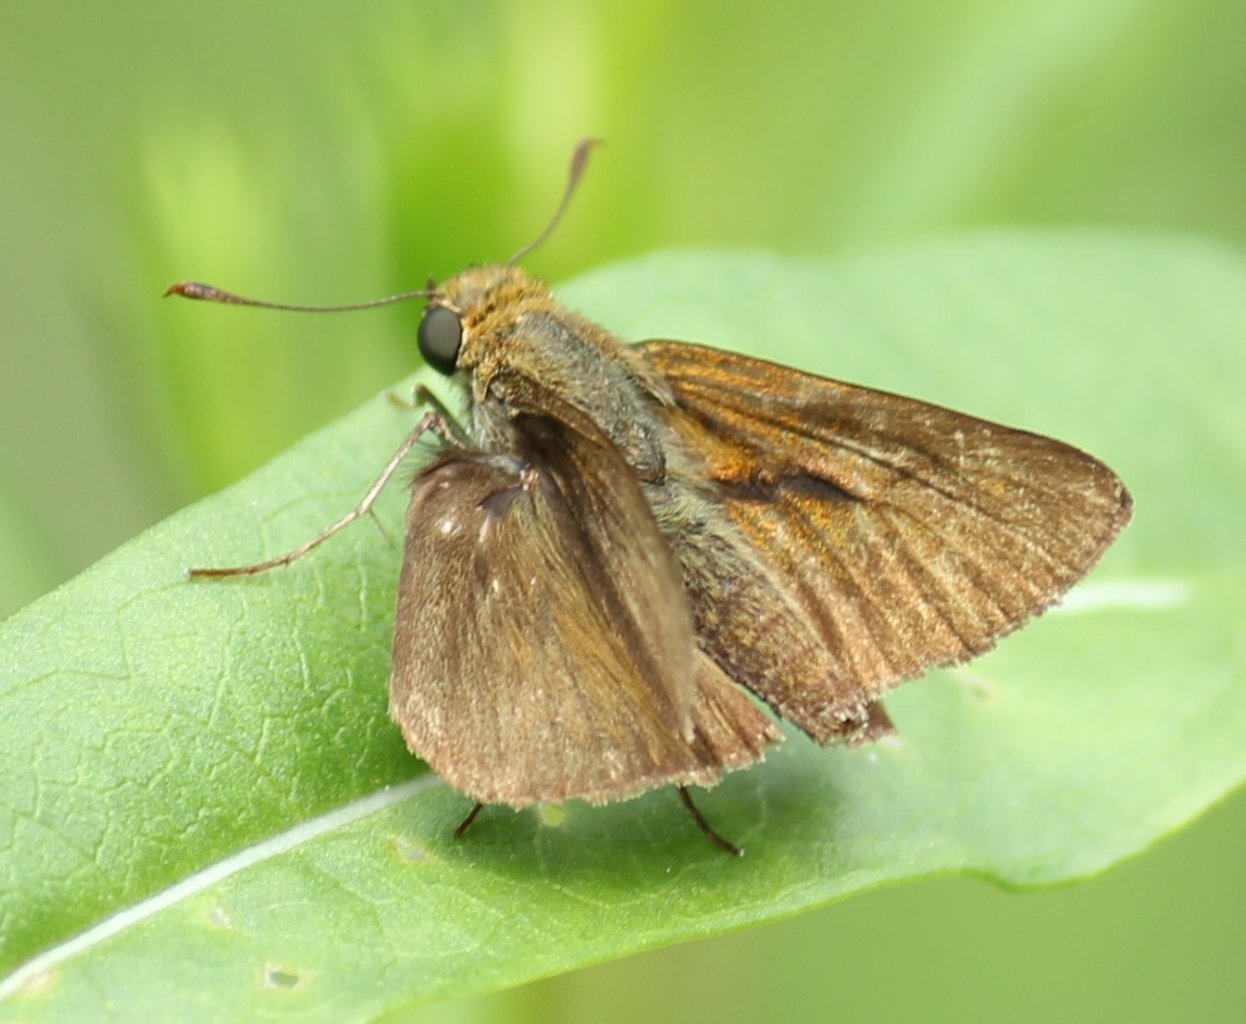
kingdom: Animalia
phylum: Arthropoda
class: Insecta
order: Lepidoptera
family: Hesperiidae
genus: Euphyes
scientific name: Euphyes vestris
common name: Dun Skipper
